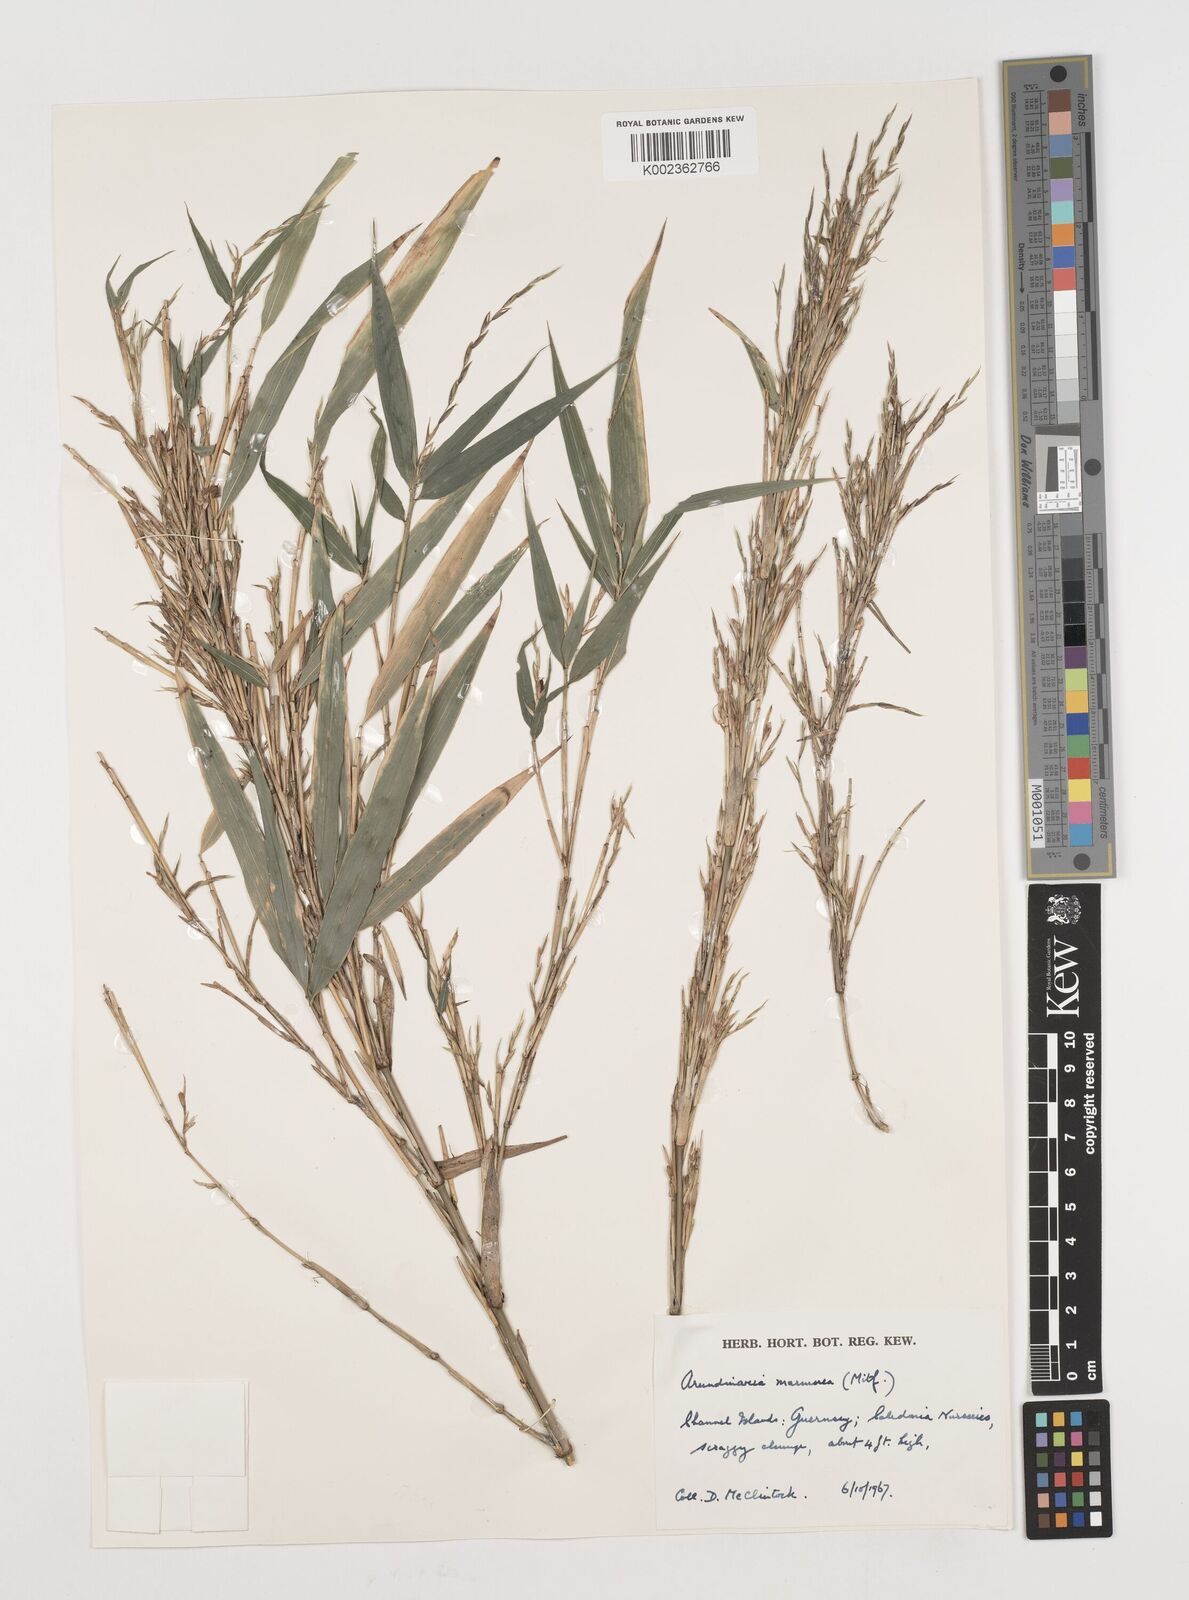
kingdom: Plantae
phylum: Tracheophyta
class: Liliopsida
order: Poales
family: Poaceae
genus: Chimonobambusa
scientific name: Chimonobambusa marmorea
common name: Marbled bamboo
